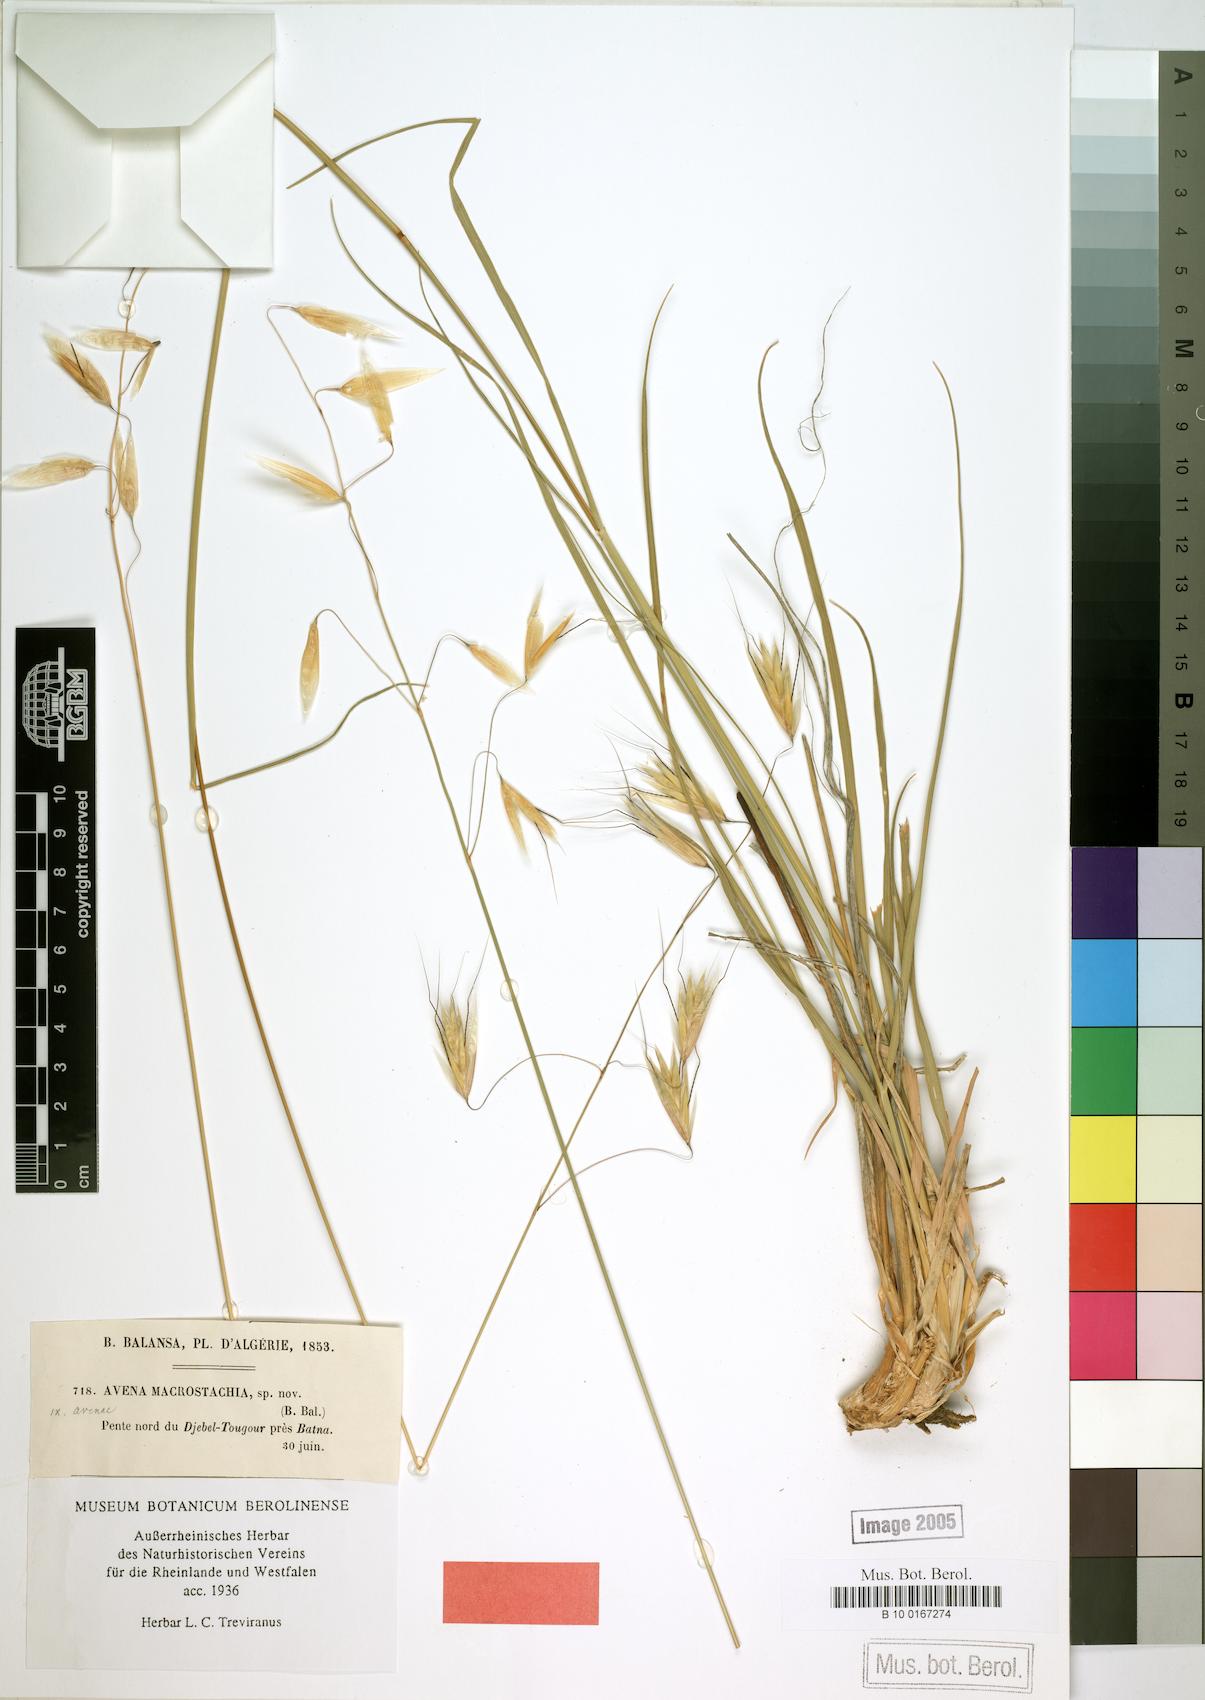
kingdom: Plantae
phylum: Tracheophyta
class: Liliopsida
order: Poales
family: Poaceae
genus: Helictotrichon
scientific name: Helictotrichon macrostachyum
